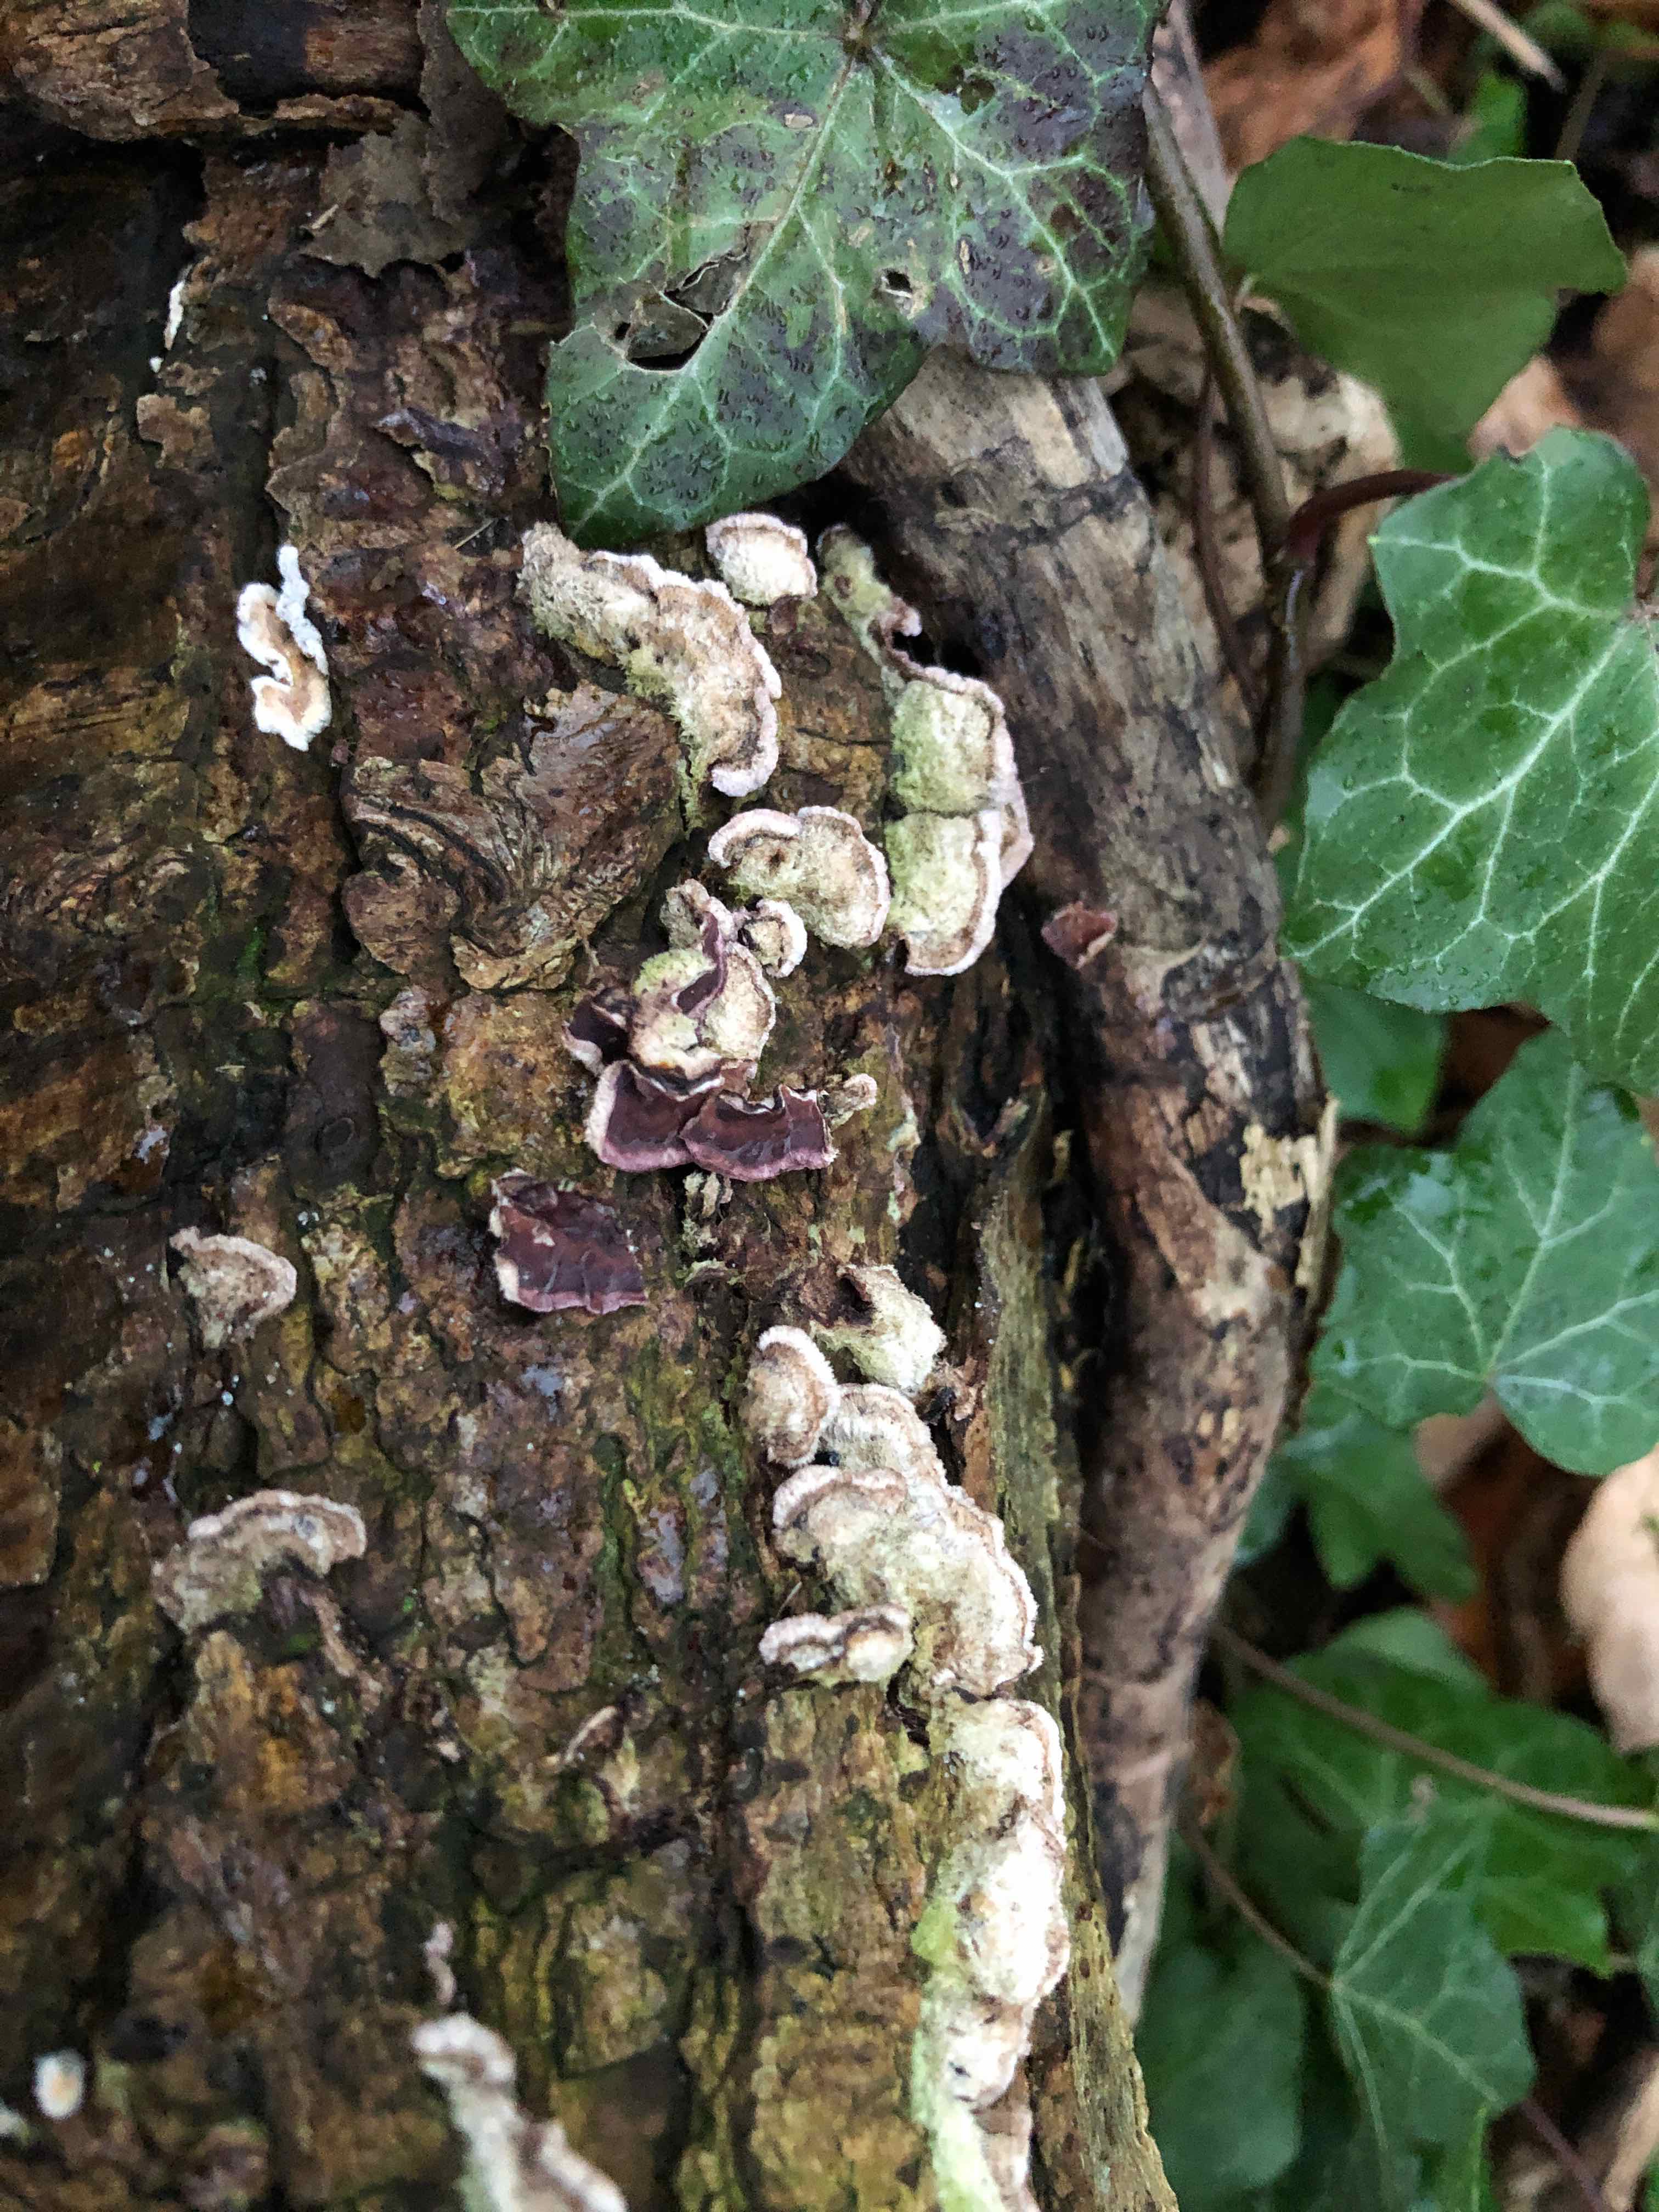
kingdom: Fungi
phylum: Basidiomycota
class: Agaricomycetes
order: Agaricales
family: Cyphellaceae
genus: Chondrostereum
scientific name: Chondrostereum purpureum
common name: purpurlædersvamp
